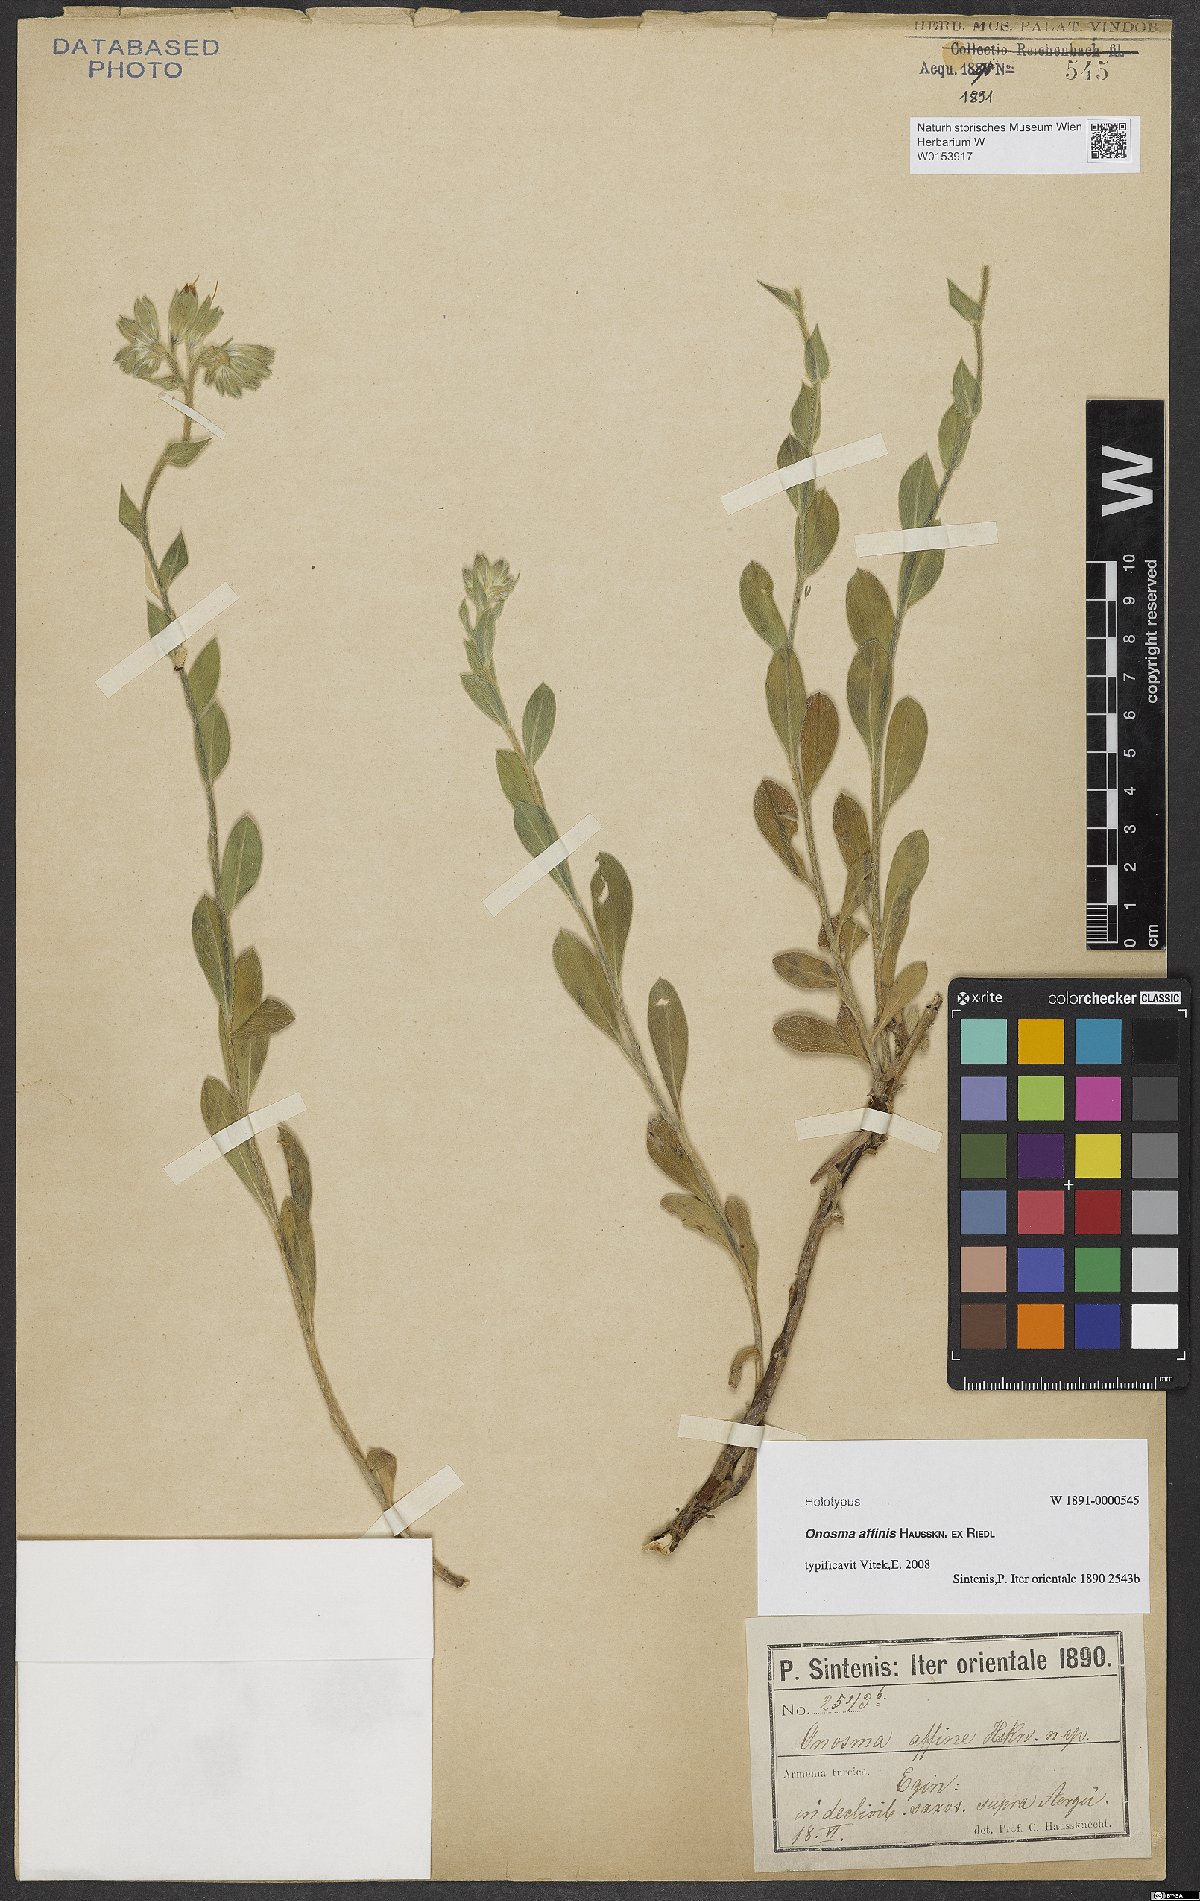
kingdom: Plantae
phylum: Tracheophyta
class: Magnoliopsida
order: Boraginales
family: Boraginaceae
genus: Onosma
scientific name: Onosma affinis
